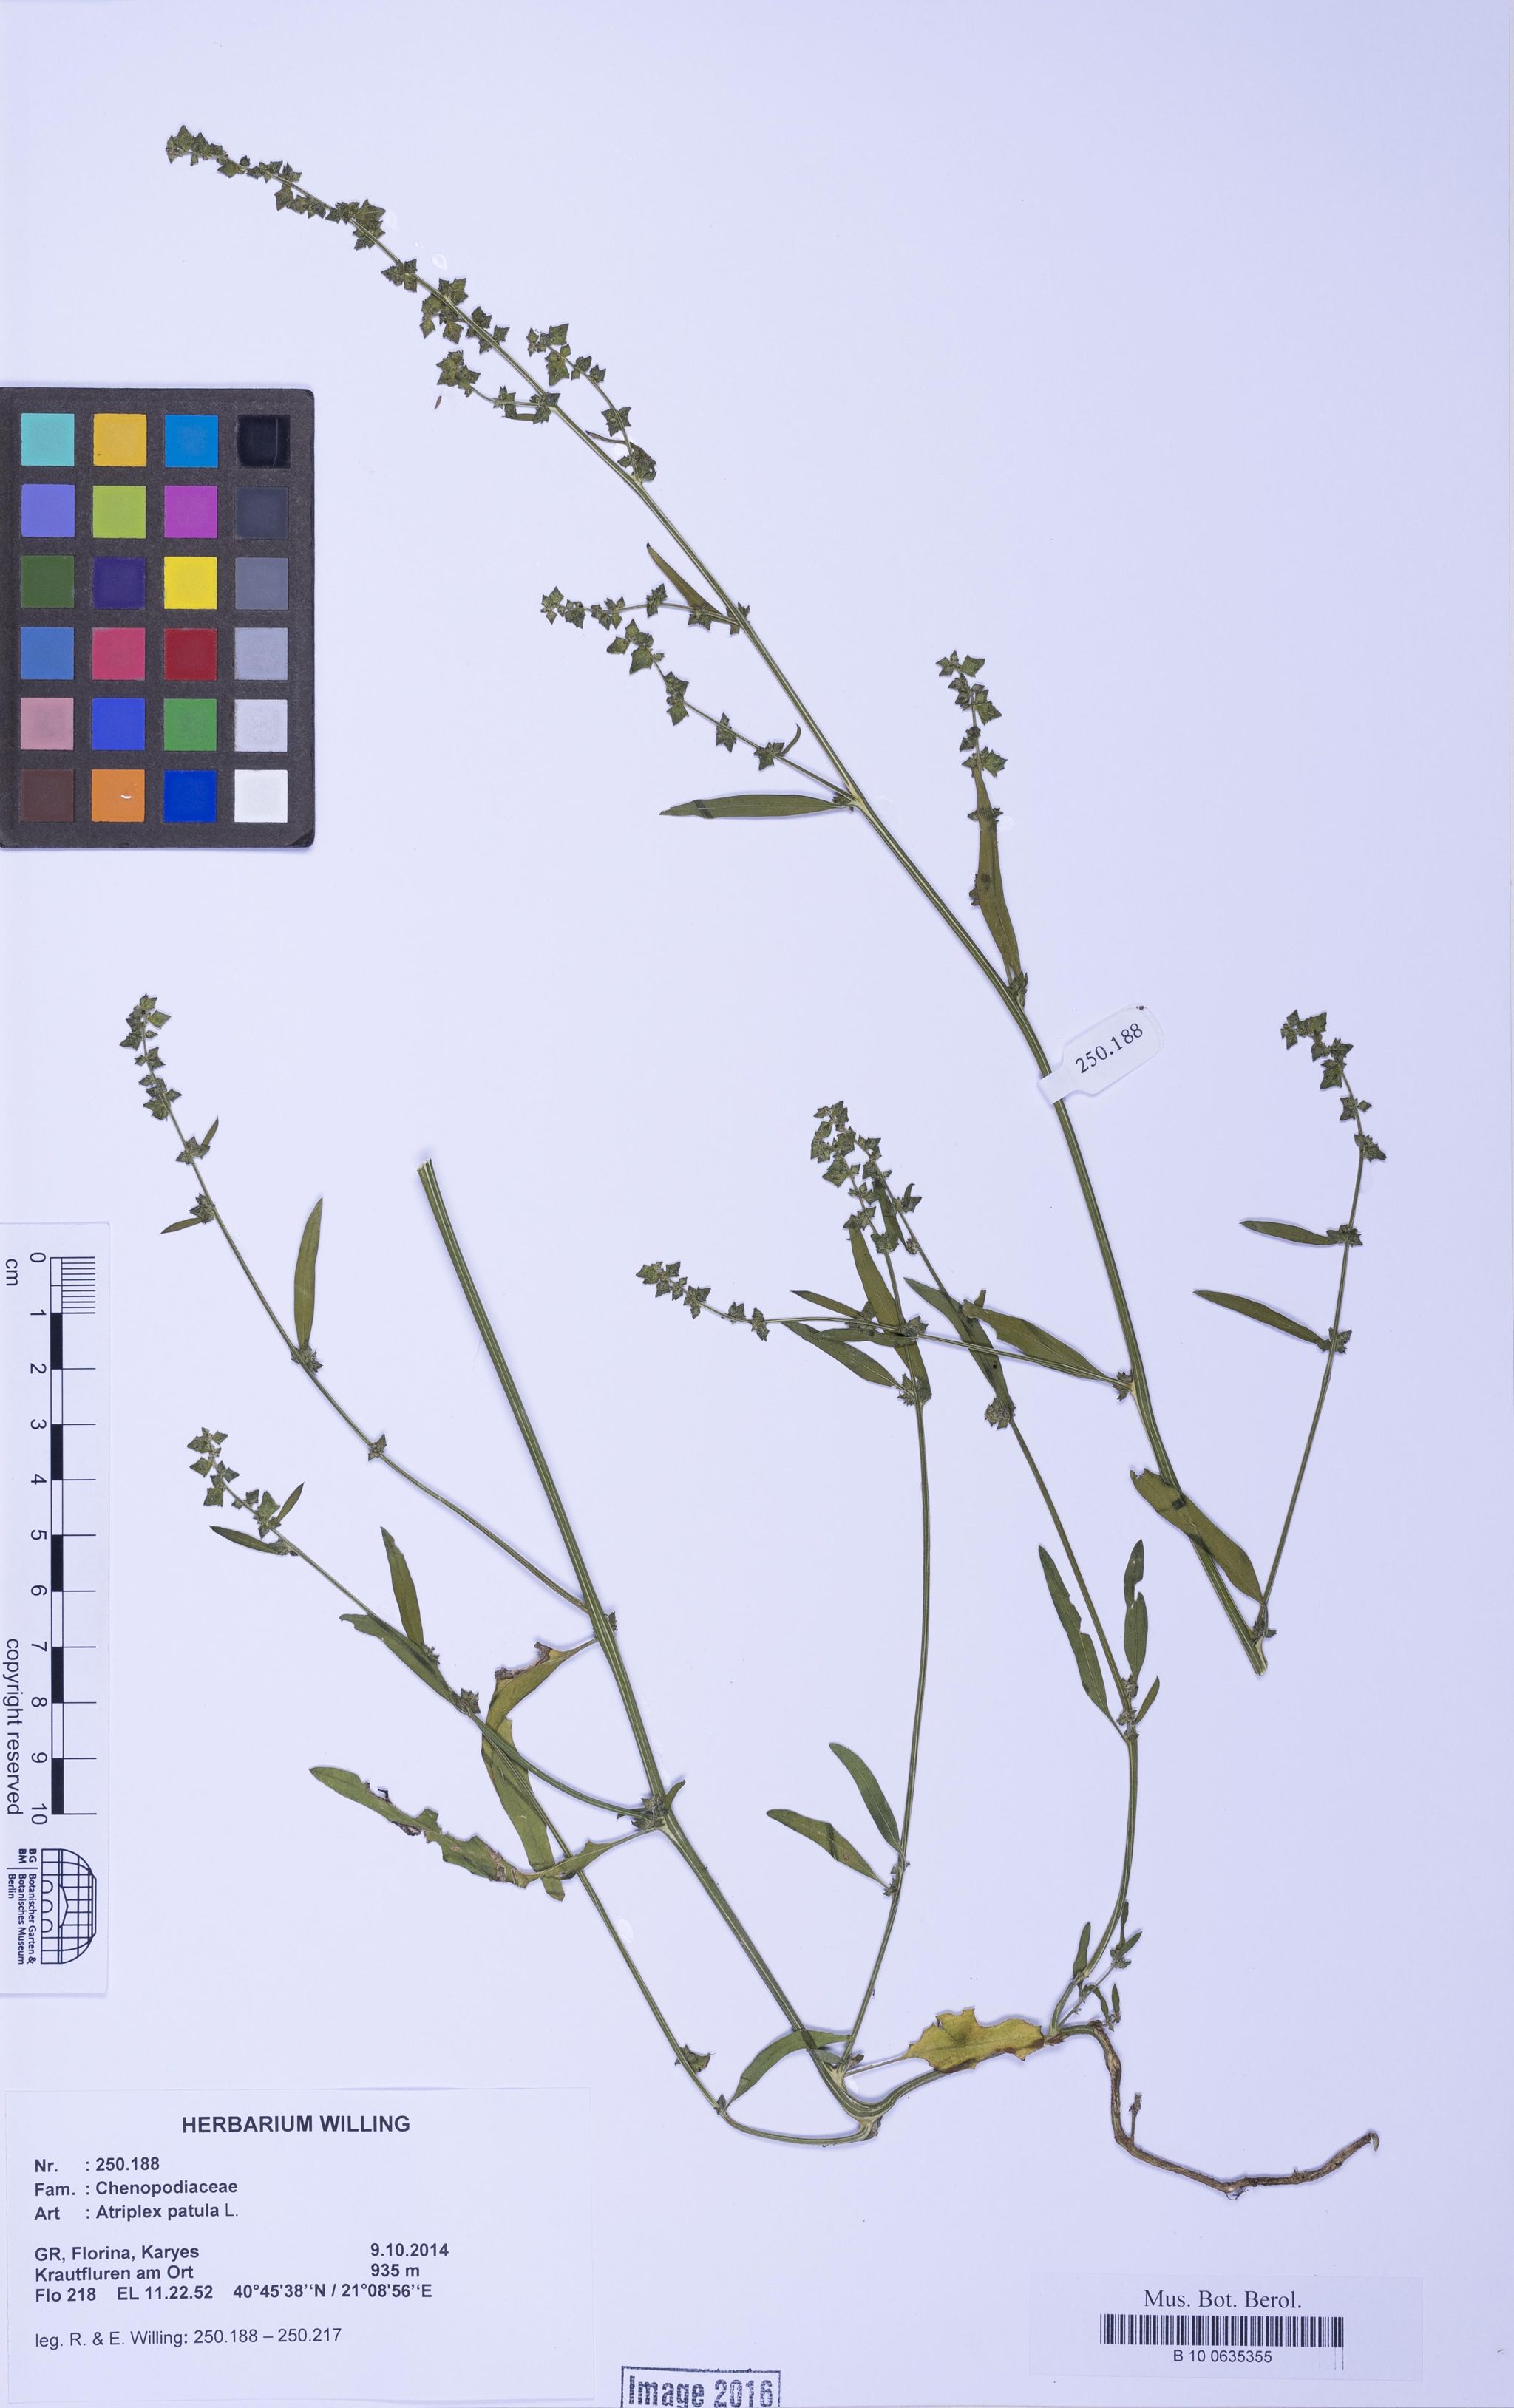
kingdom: Plantae
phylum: Tracheophyta
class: Magnoliopsida
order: Caryophyllales
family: Amaranthaceae
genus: Atriplex
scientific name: Atriplex patula
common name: Common orache
